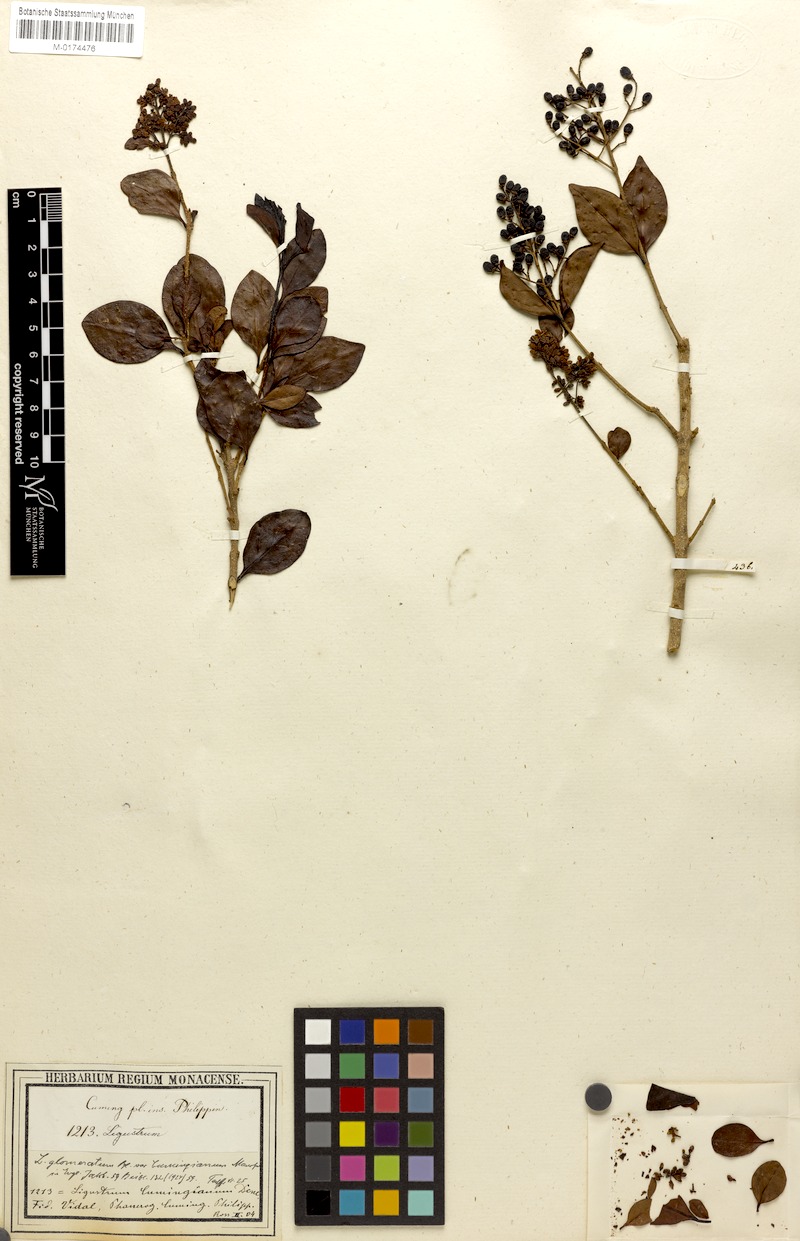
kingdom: Plantae
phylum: Tracheophyta
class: Magnoliopsida
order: Lamiales
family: Oleaceae
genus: Ligustrum
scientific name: Ligustrum cumingianum
